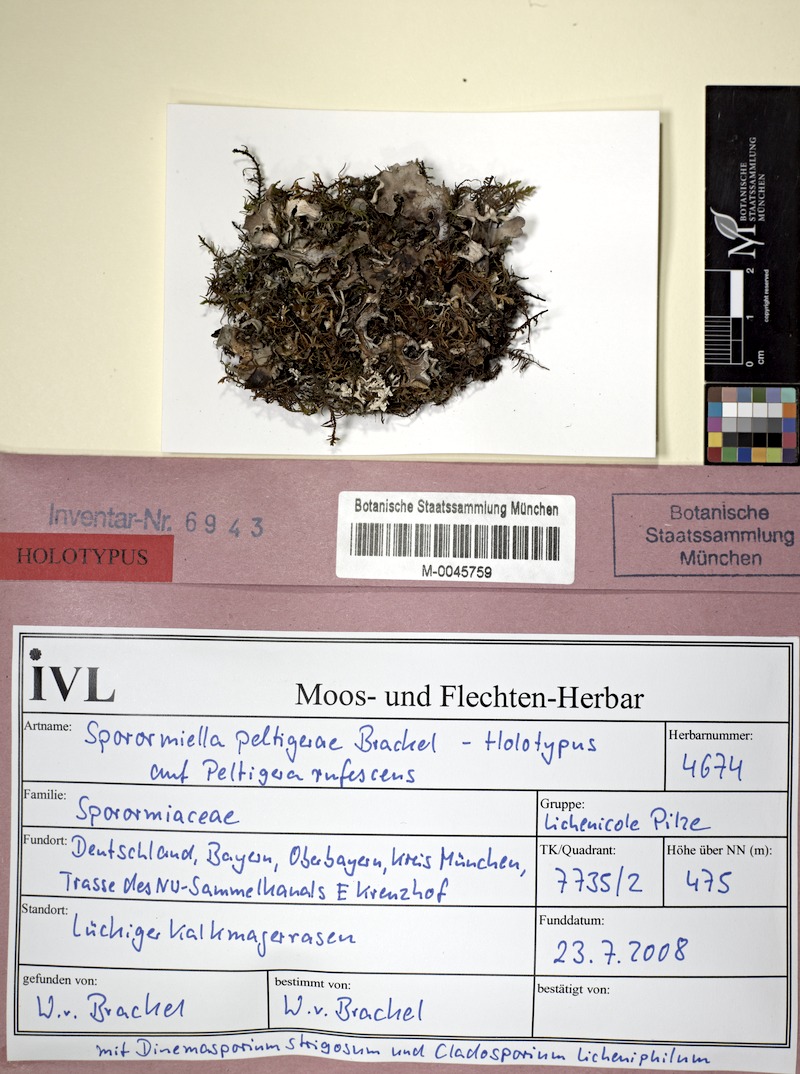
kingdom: Fungi
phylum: Ascomycota
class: Dothideomycetes
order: Pleosporales
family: Sporormiaceae
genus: Preussia
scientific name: Preussia peltigerae
